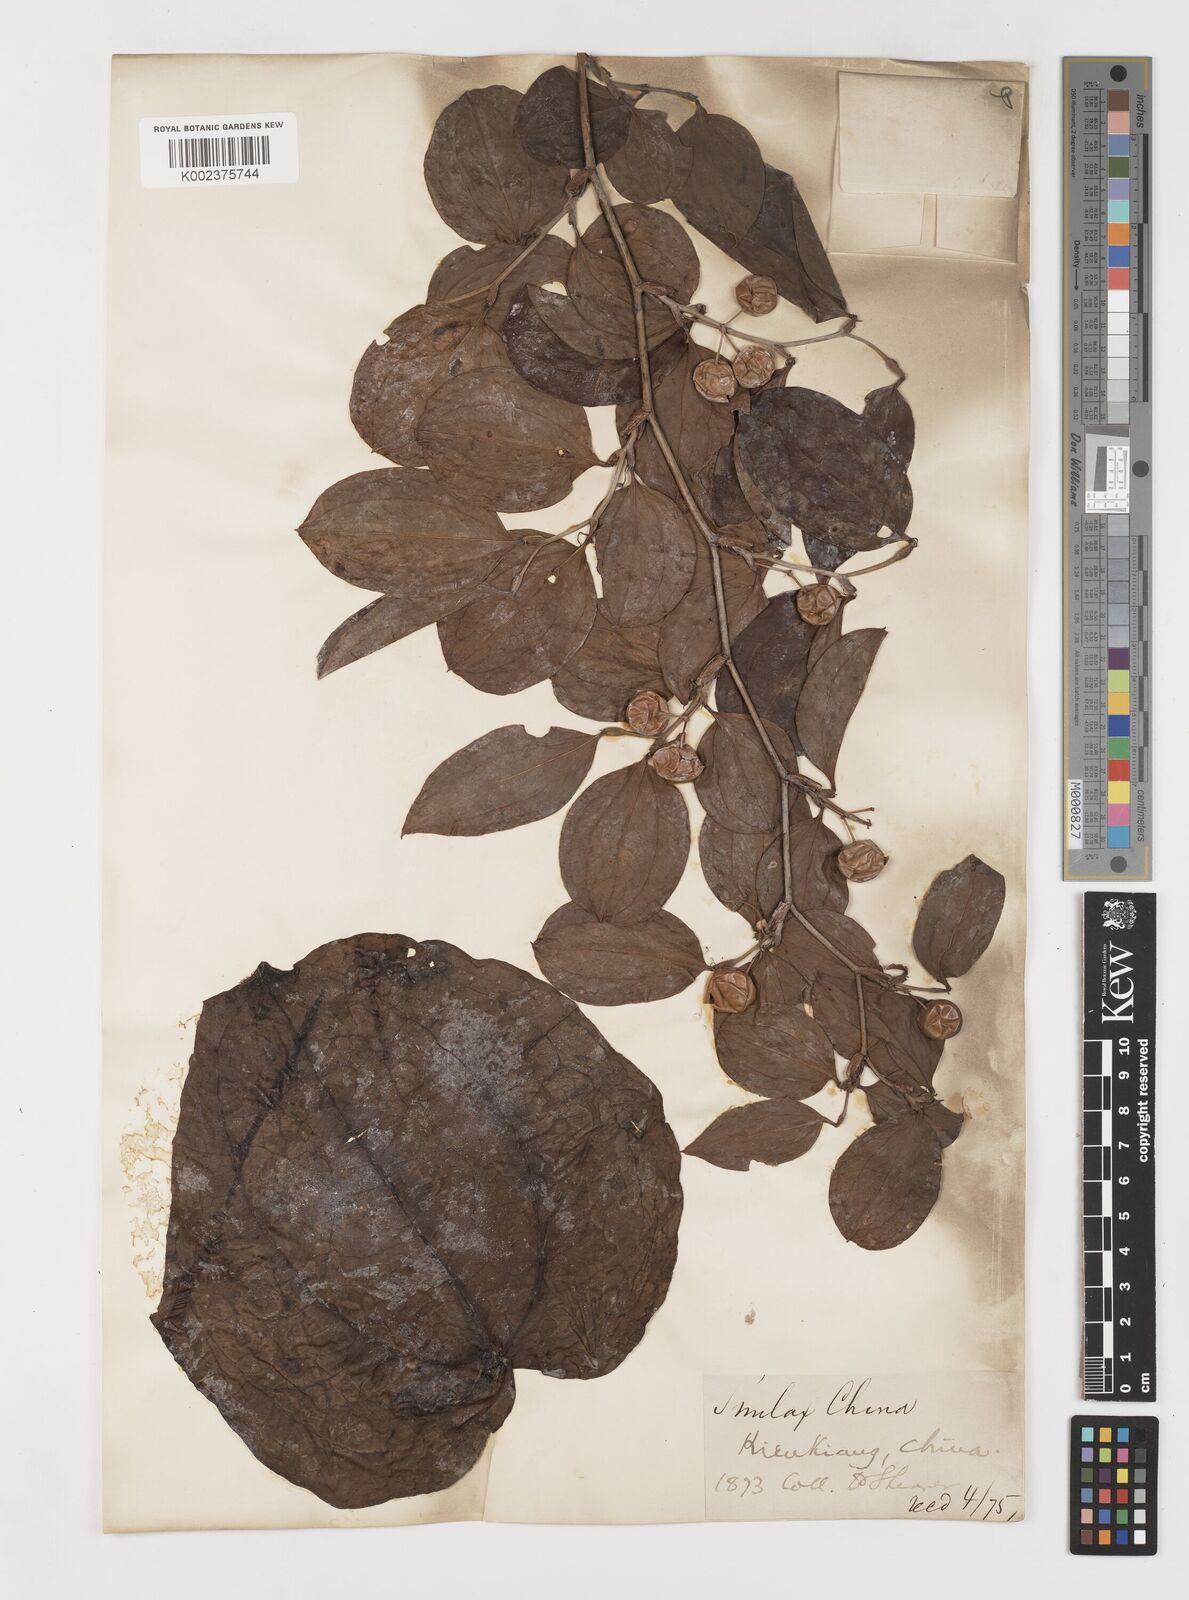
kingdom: Plantae
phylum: Tracheophyta
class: Liliopsida
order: Liliales
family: Smilacaceae
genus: Smilax
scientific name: Smilax china
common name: Chinaroot
